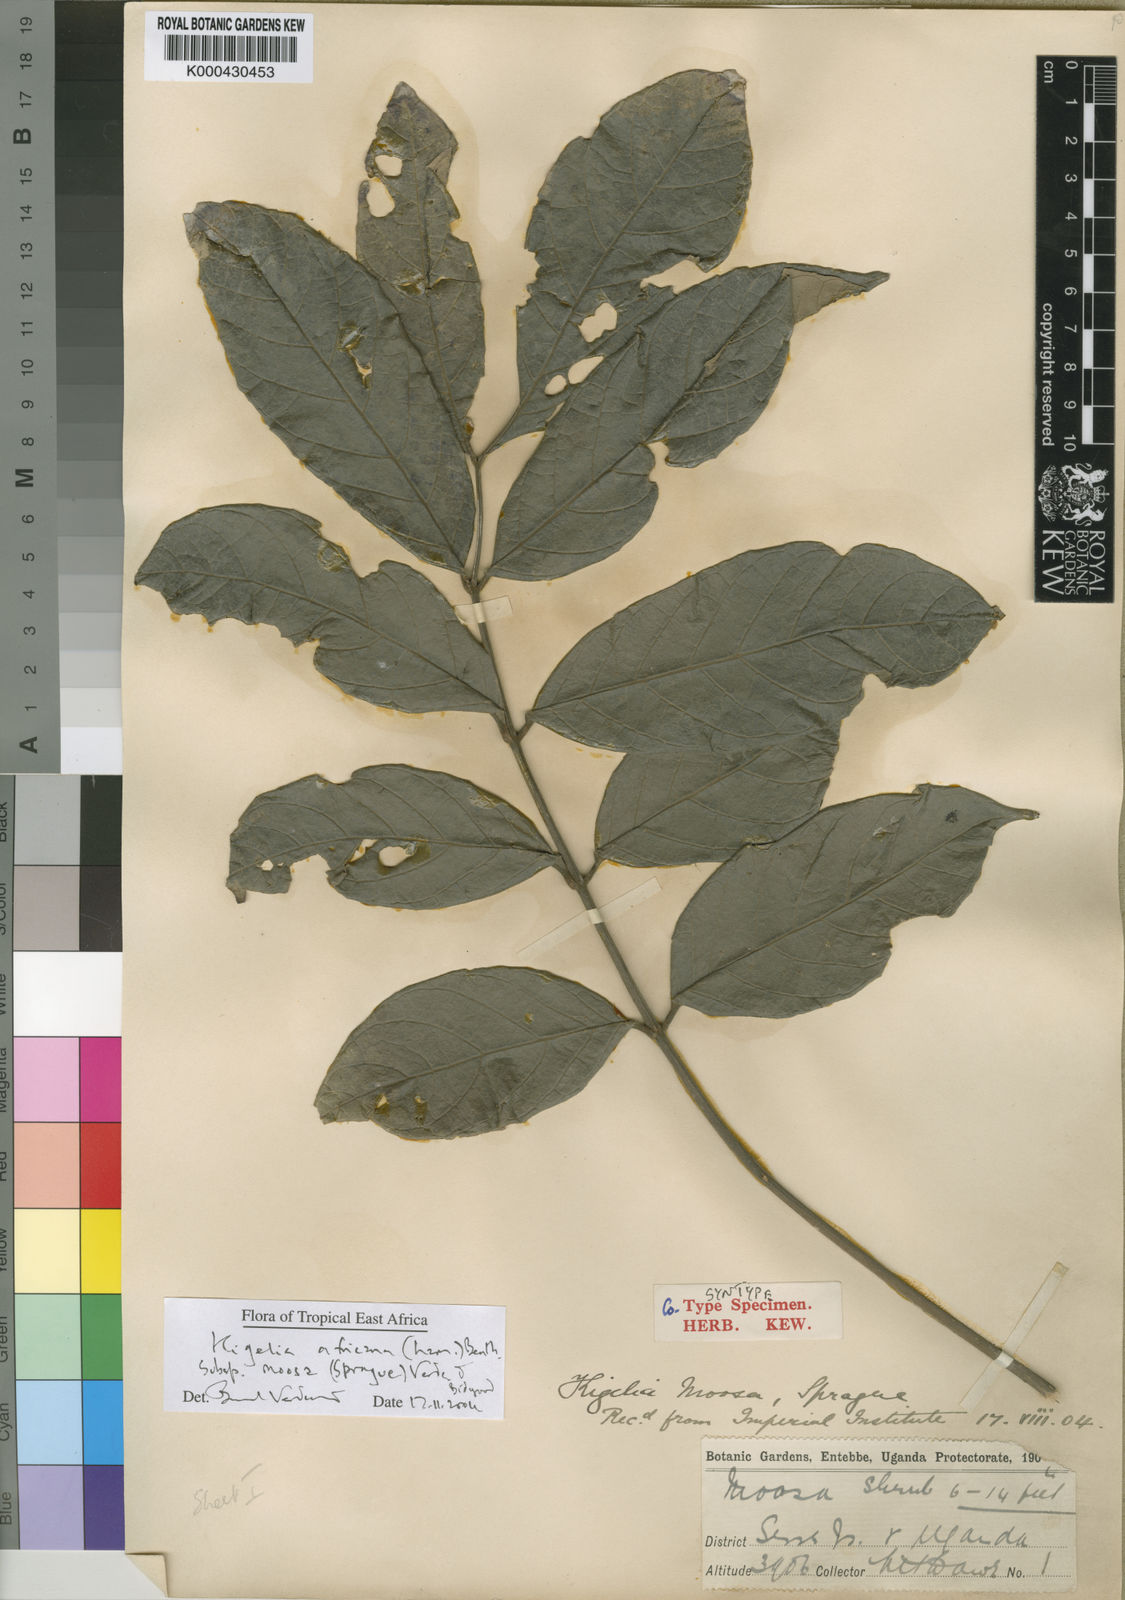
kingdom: Plantae
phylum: Tracheophyta
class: Magnoliopsida
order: Lamiales
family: Bignoniaceae
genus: Kigelia
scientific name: Kigelia africana
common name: Sausage tree
